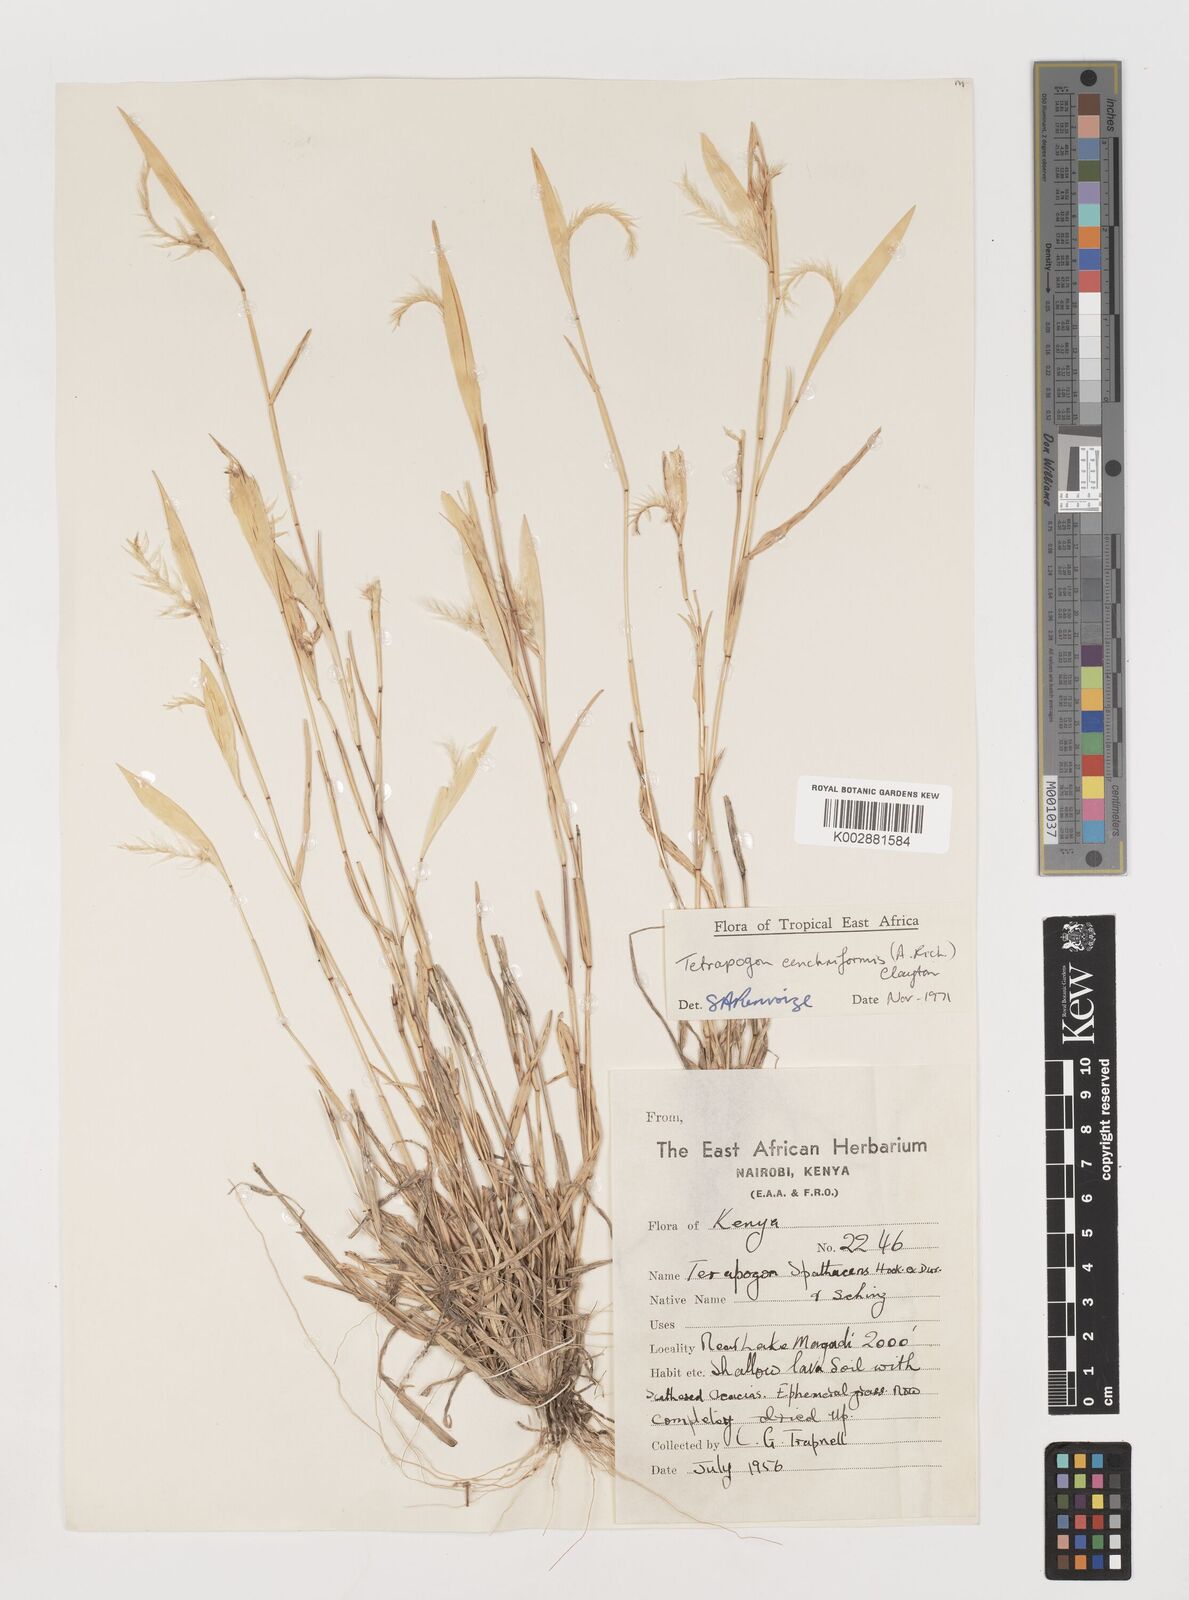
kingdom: Plantae
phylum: Tracheophyta
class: Liliopsida
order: Poales
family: Poaceae
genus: Tetrapogon
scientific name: Tetrapogon cenchriformis
